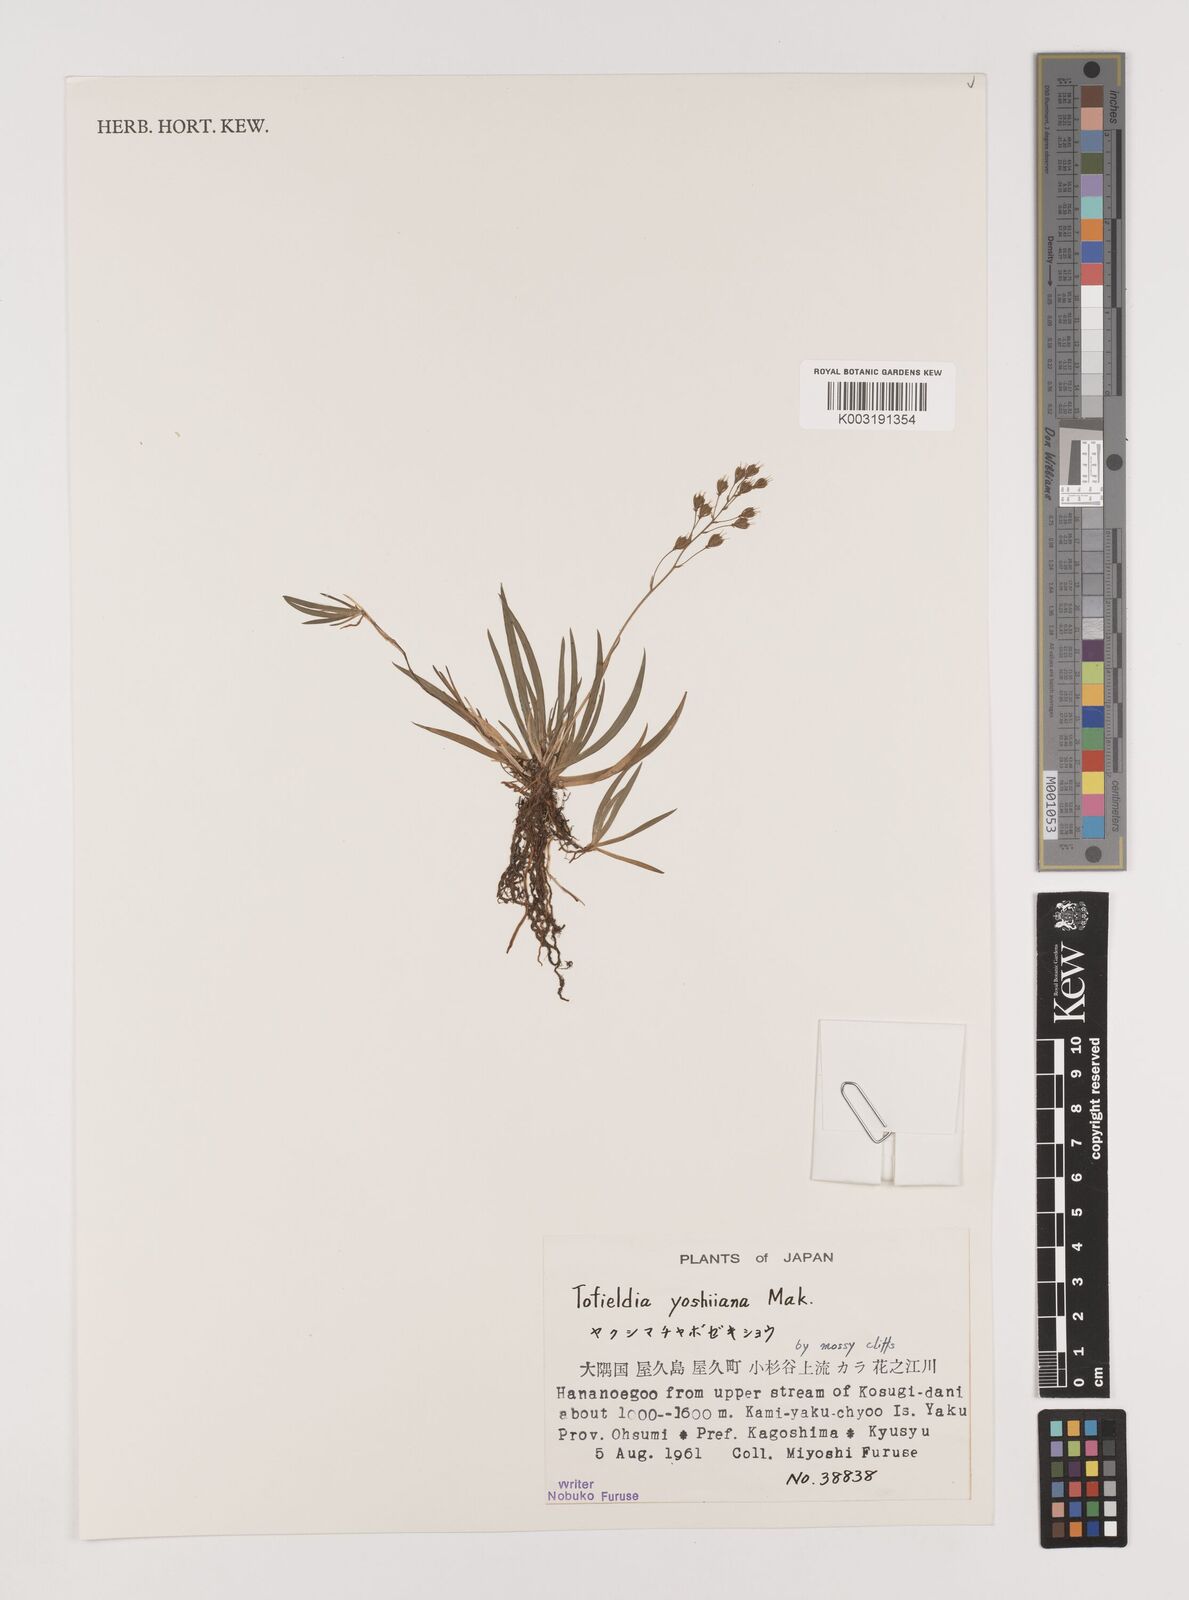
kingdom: Plantae
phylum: Tracheophyta
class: Liliopsida
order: Alismatales
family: Tofieldiaceae
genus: Tofieldia
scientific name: Tofieldia yoshiiana
